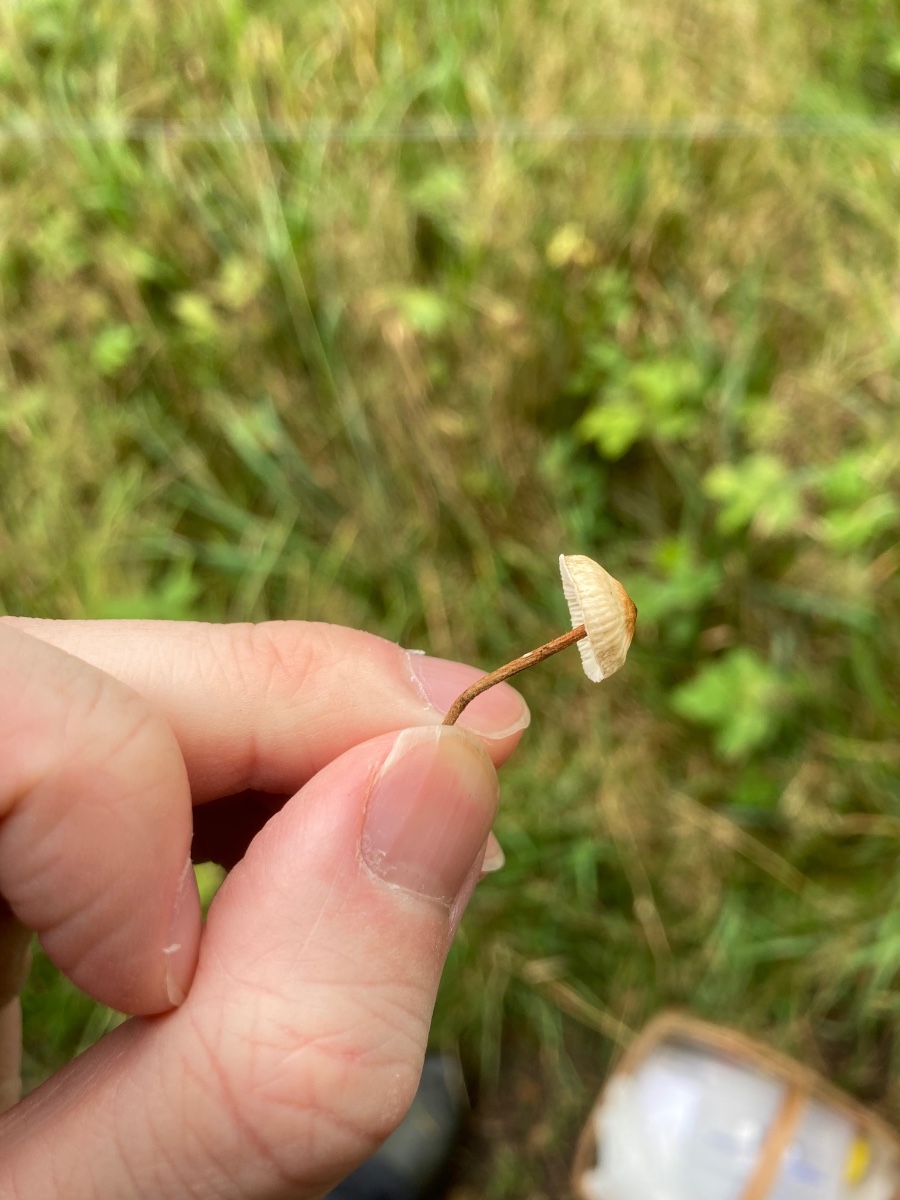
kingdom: Fungi
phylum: Basidiomycota
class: Agaricomycetes
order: Agaricales
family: Marasmiaceae
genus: Crinipellis
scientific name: Crinipellis scabella
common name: børstefod
